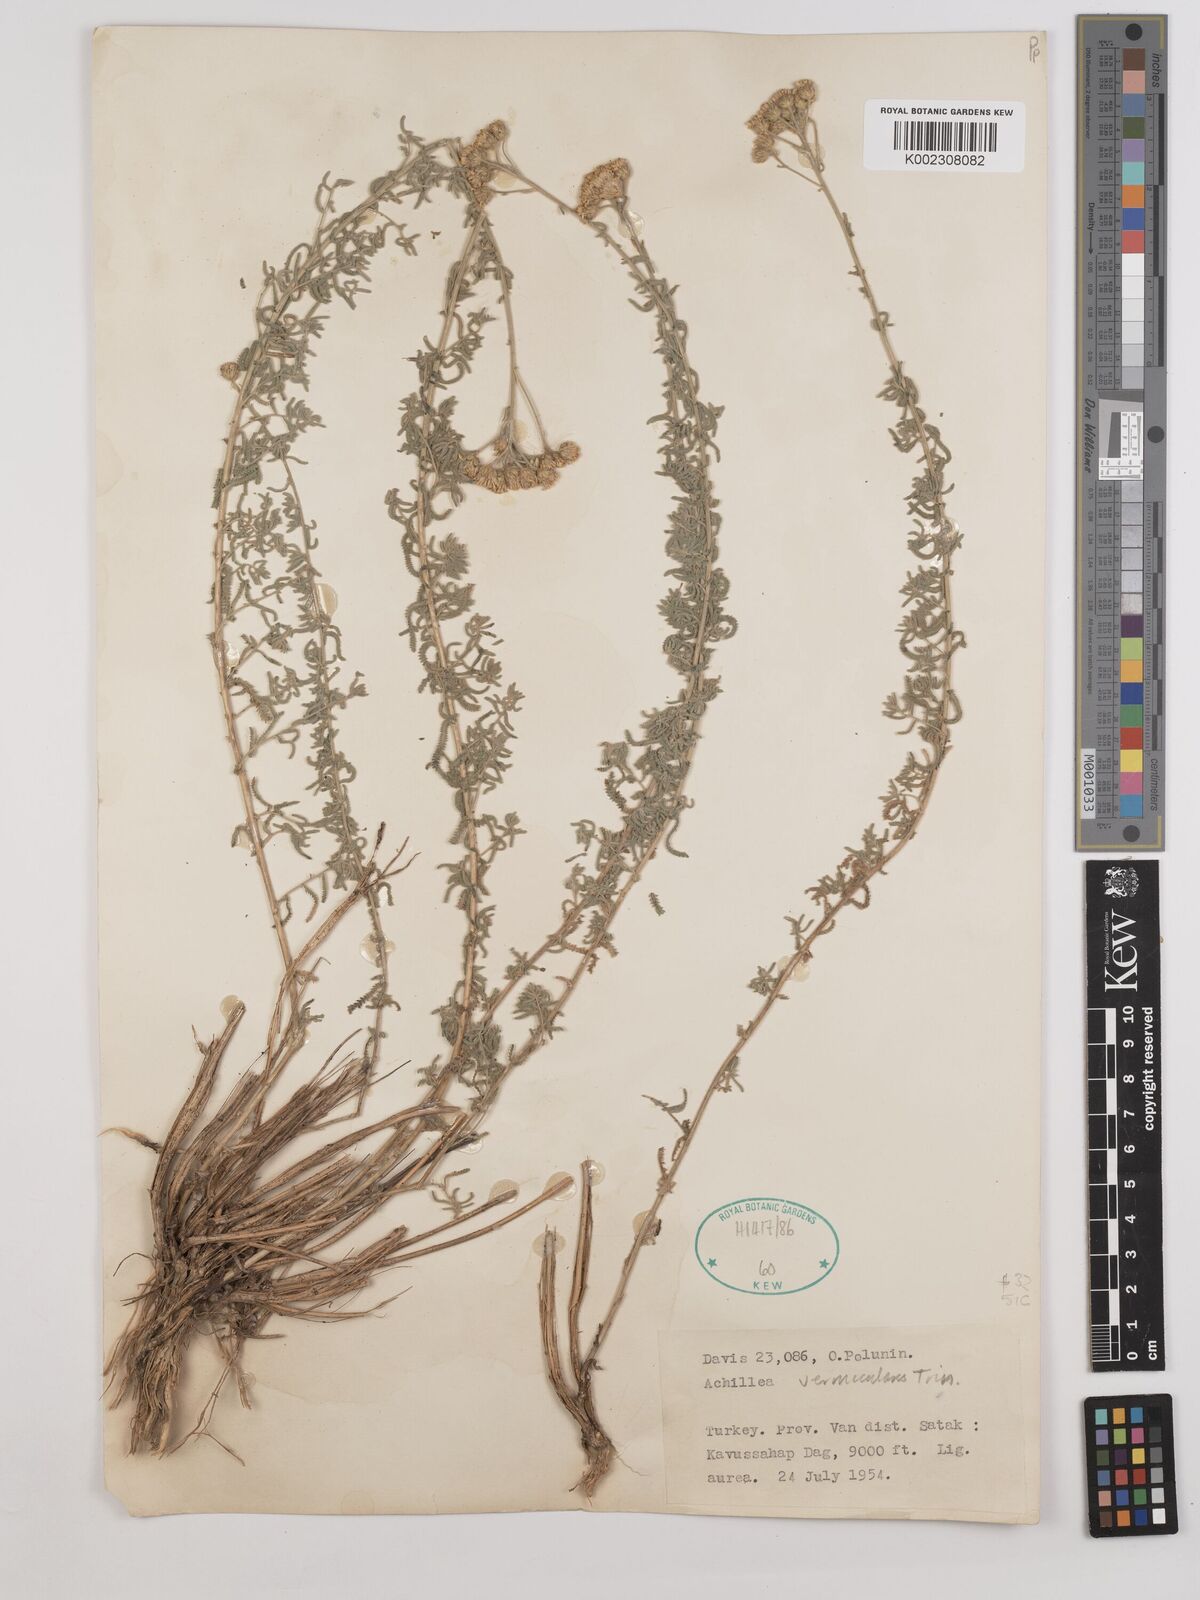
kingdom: Plantae
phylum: Tracheophyta
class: Magnoliopsida
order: Asterales
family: Asteraceae
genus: Achillea
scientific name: Achillea vermicularis
